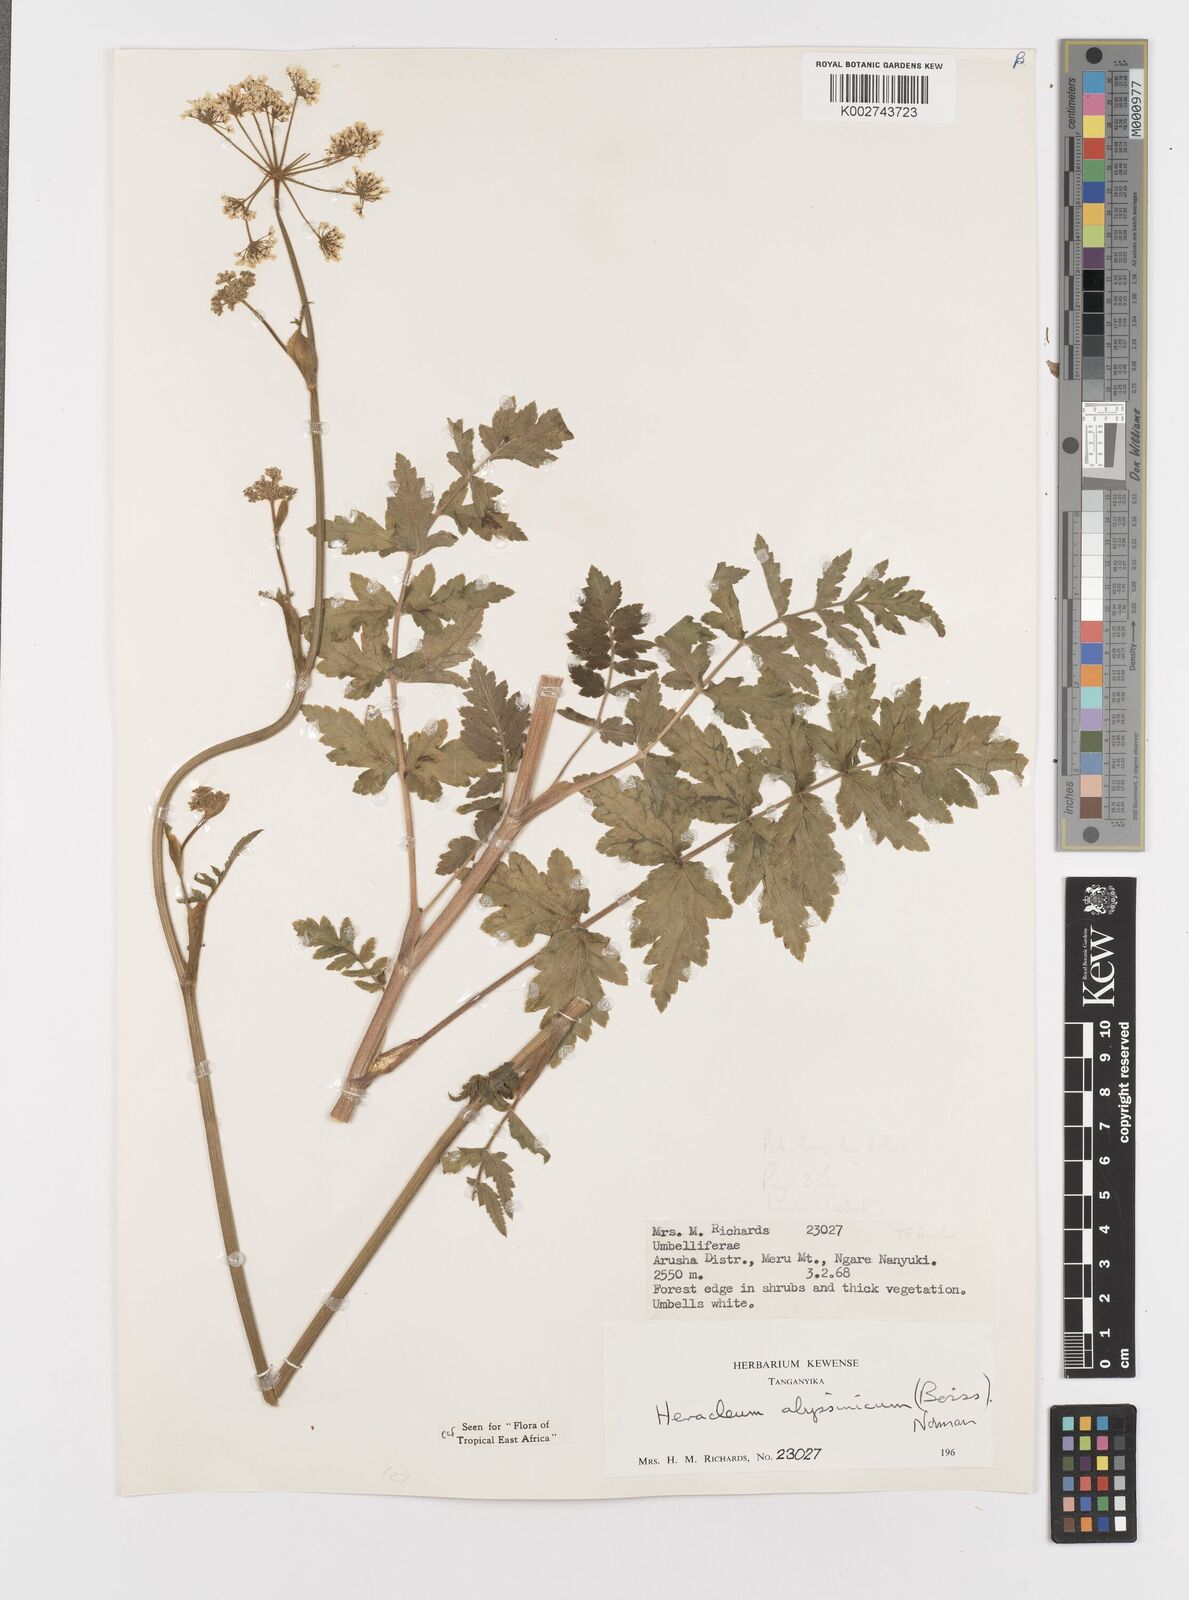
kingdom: Plantae
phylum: Tracheophyta
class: Magnoliopsida
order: Apiales
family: Apiaceae
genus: Heracleum
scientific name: Heracleum abyssinicum
